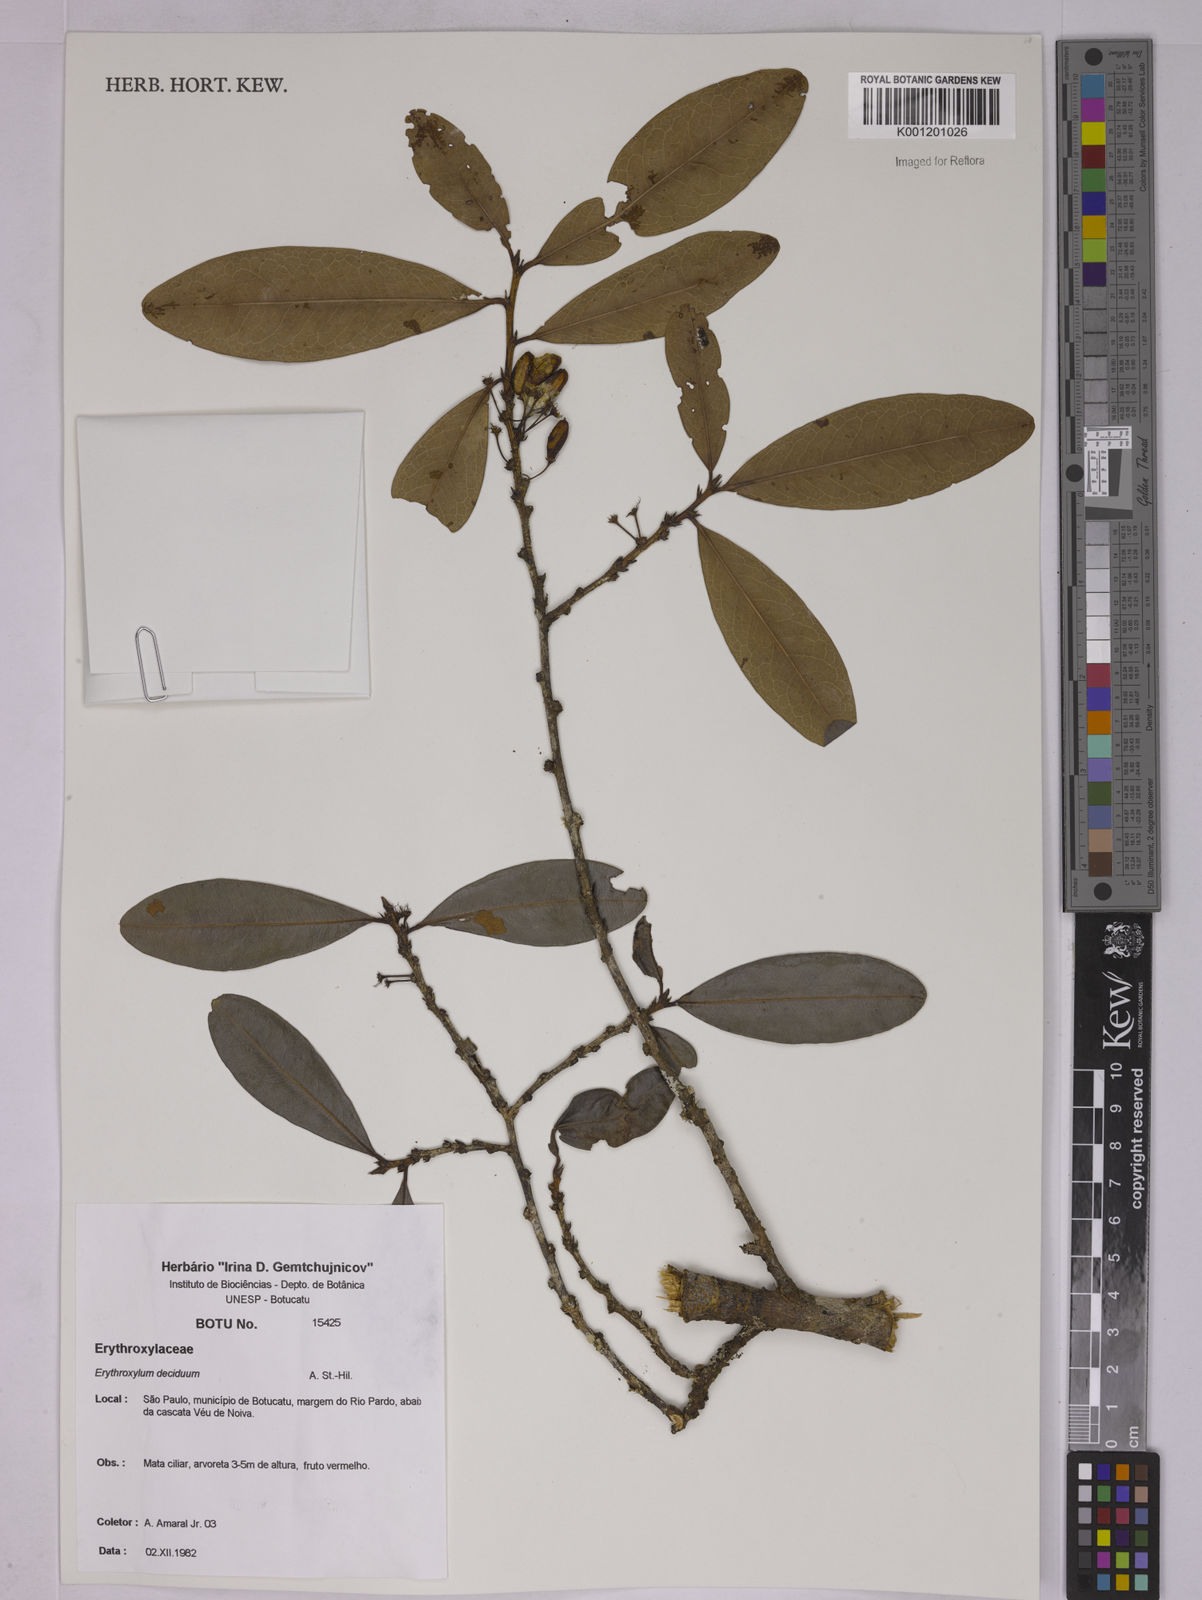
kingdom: Plantae
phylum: Tracheophyta
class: Magnoliopsida
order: Malpighiales
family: Erythroxylaceae
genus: Erythroxylum
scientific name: Erythroxylum deciduum
